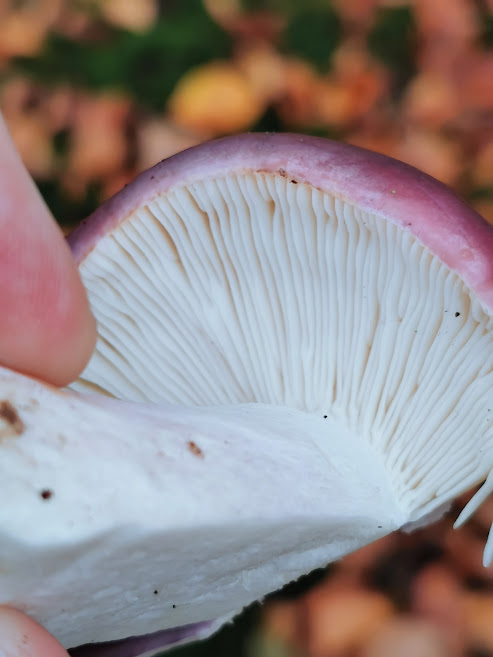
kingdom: Fungi
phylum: Basidiomycota
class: Agaricomycetes
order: Russulales
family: Russulaceae
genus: Russula
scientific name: Russula
